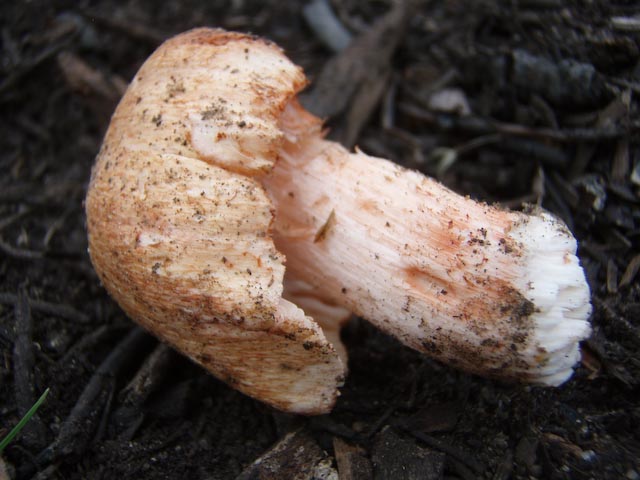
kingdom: Fungi
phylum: Basidiomycota
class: Agaricomycetes
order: Agaricales
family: Inocybaceae
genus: Inosperma
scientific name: Inosperma erubescens
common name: giftig trævlhat
